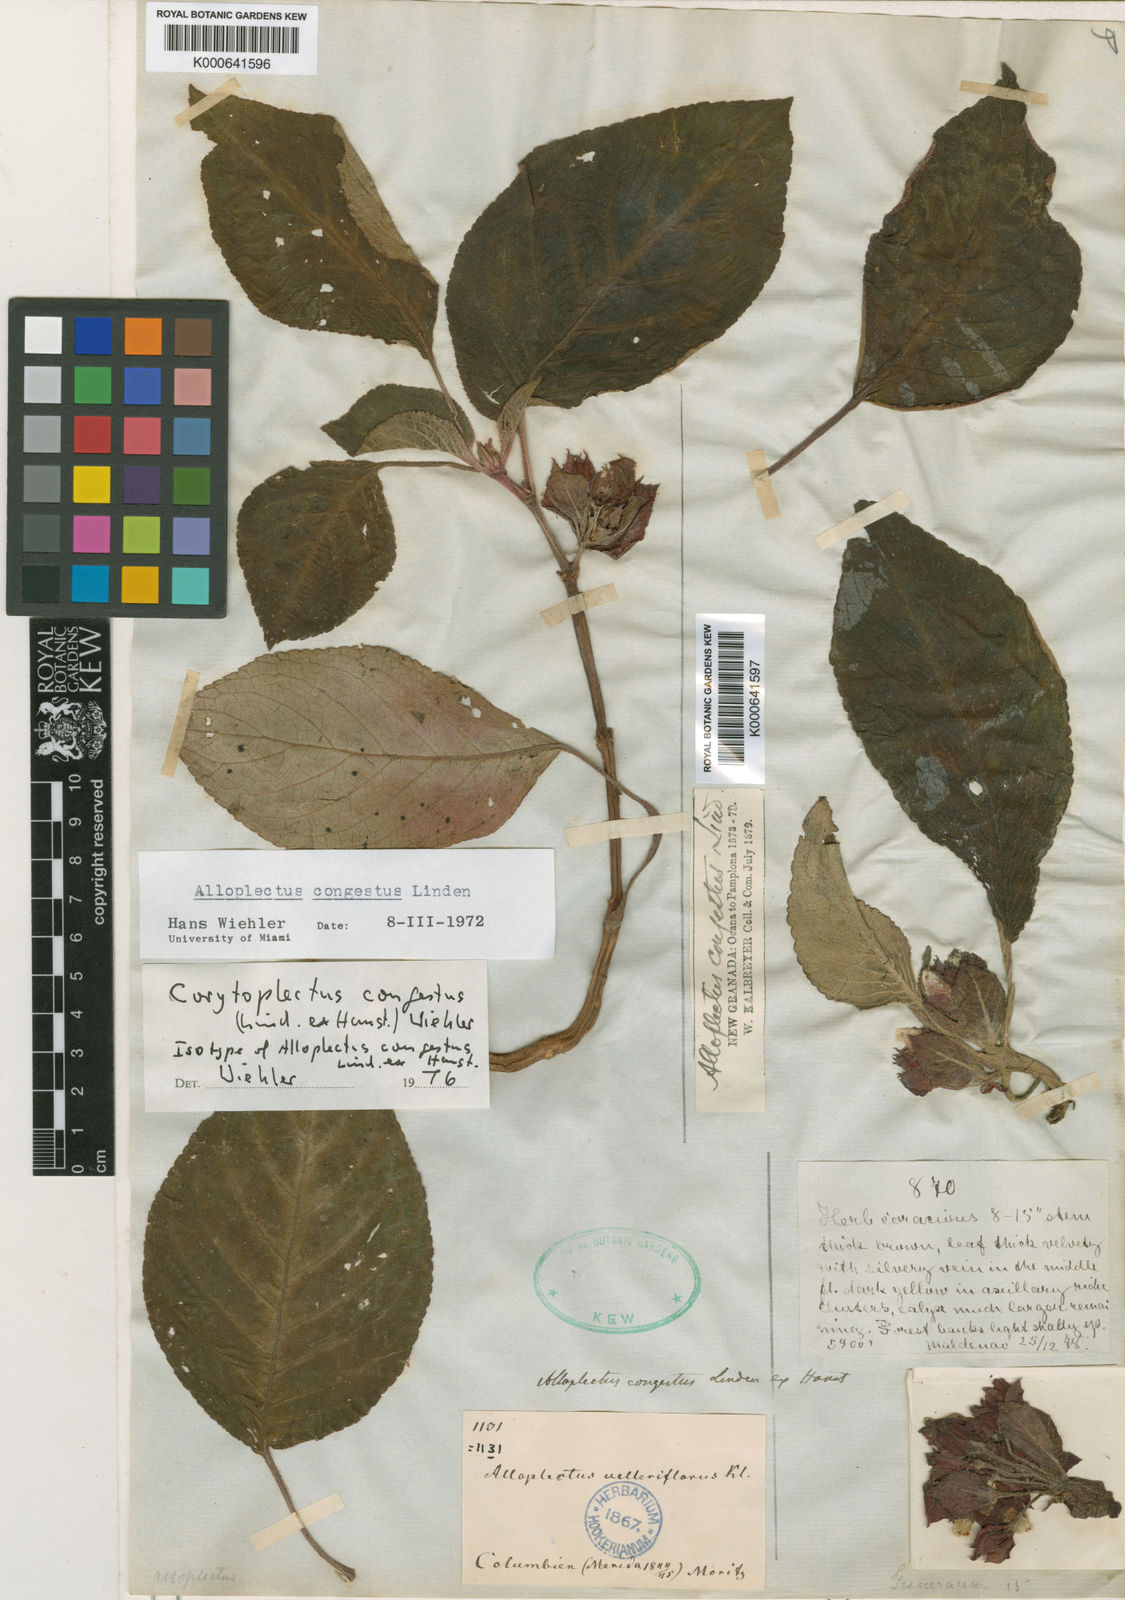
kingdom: Plantae
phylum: Tracheophyta
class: Magnoliopsida
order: Lamiales
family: Gesneriaceae
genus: Corytoplectus
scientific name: Corytoplectus congestus
